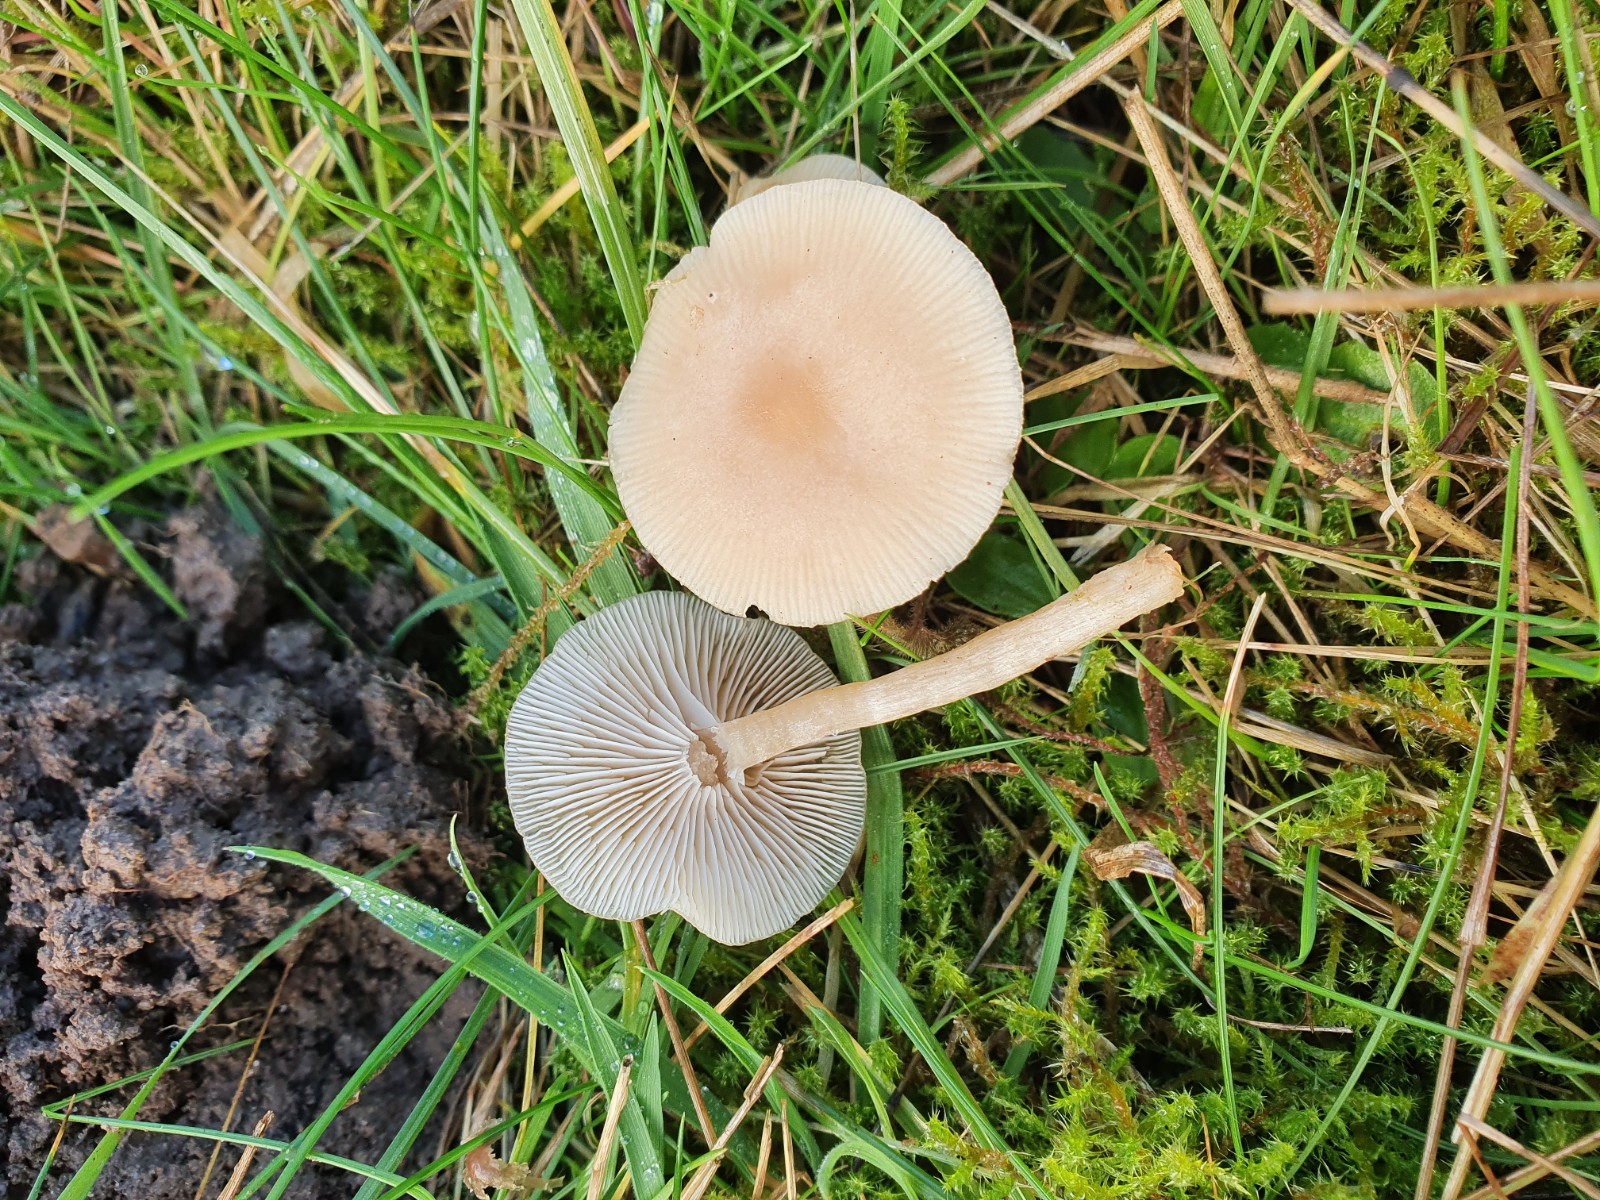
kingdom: Fungi
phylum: Basidiomycota
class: Agaricomycetes
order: Agaricales
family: Tricholomataceae
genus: Clitocybe
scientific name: Clitocybe fragrans
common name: vellugtende tragthat
